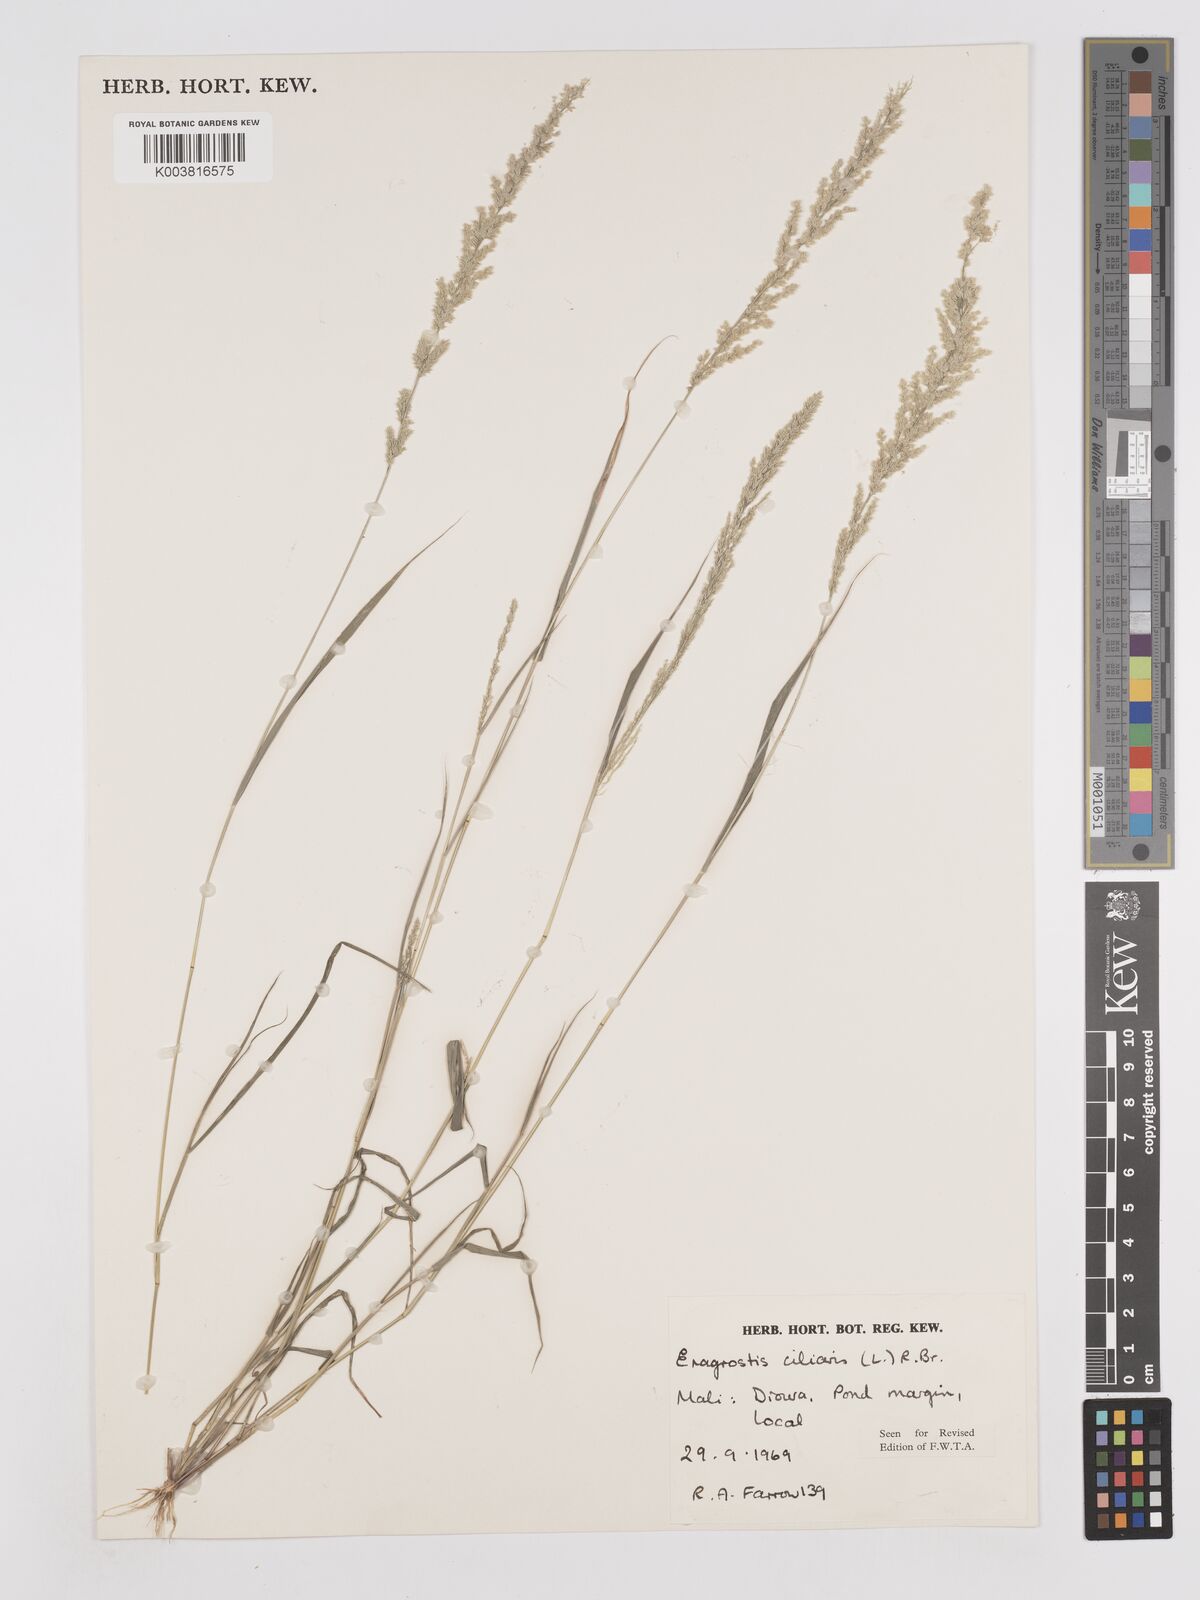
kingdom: Plantae
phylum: Tracheophyta
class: Liliopsida
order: Poales
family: Poaceae
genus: Eragrostis
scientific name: Eragrostis ciliaris
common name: Gophertail lovegrass
